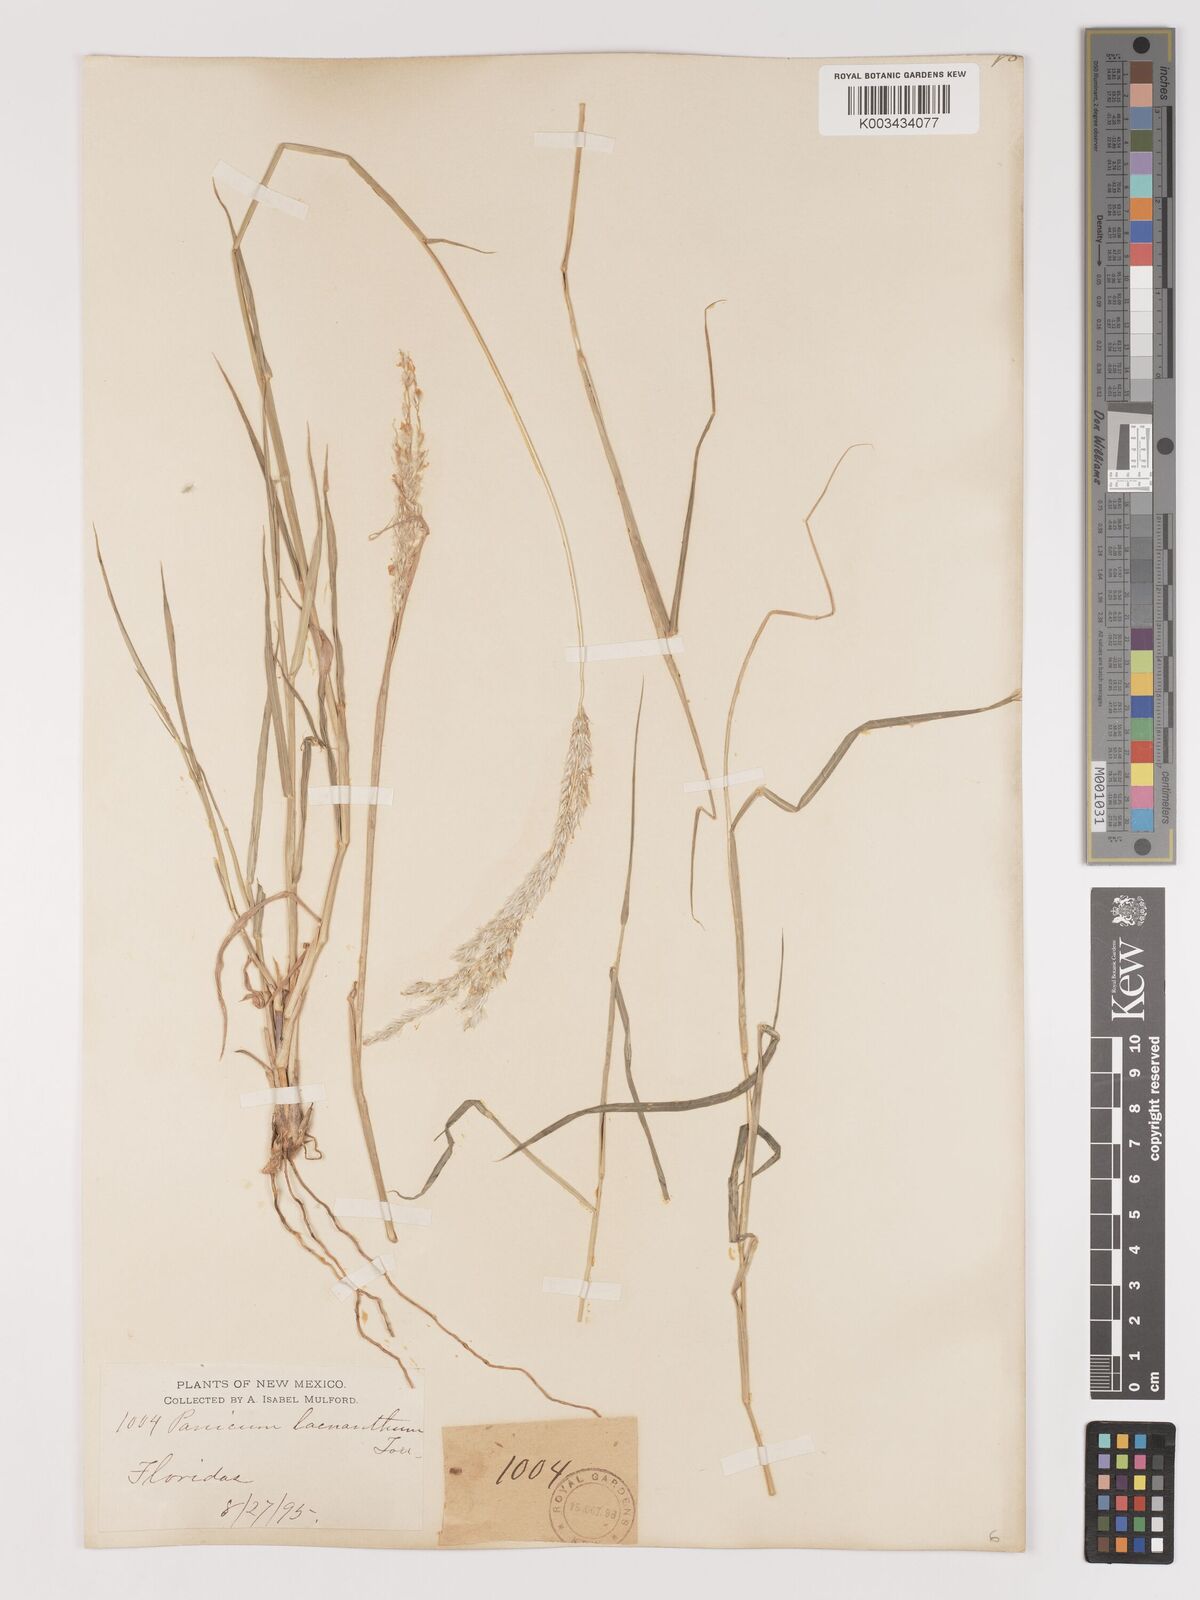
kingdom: Plantae
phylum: Tracheophyta
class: Liliopsida
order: Poales
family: Poaceae
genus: Digitaria
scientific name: Digitaria californica
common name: Arizona cottontop
